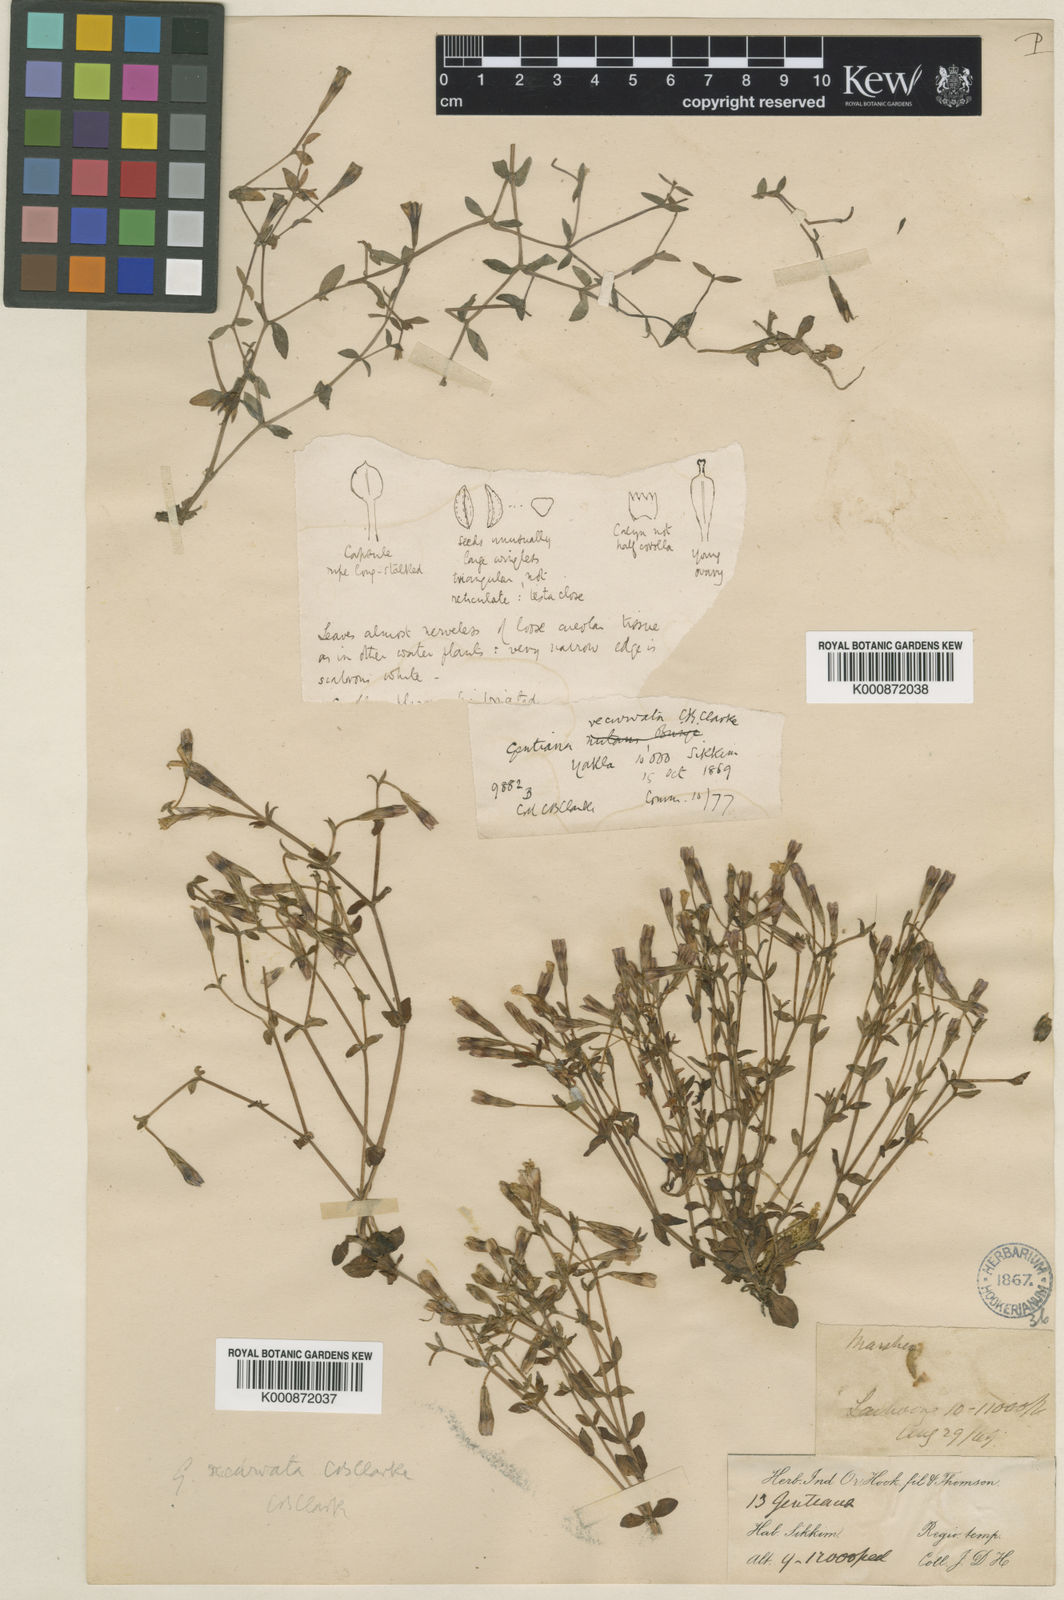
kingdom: Plantae
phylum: Tracheophyta
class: Magnoliopsida
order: Gentianales
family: Gentianaceae
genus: Gentiana
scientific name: Gentiana recurvata
